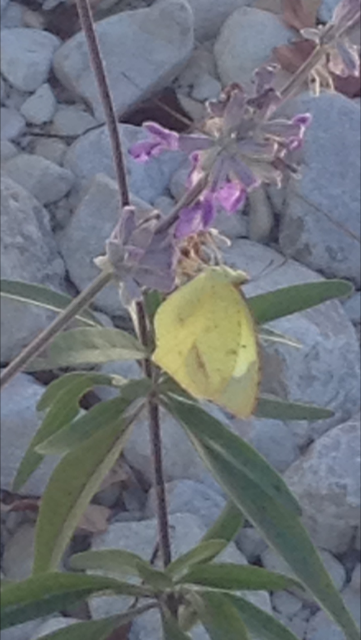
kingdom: Animalia
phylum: Arthropoda
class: Insecta
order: Lepidoptera
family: Pieridae
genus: Eurema
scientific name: Eurema mexicana
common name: Mexican Yellow
